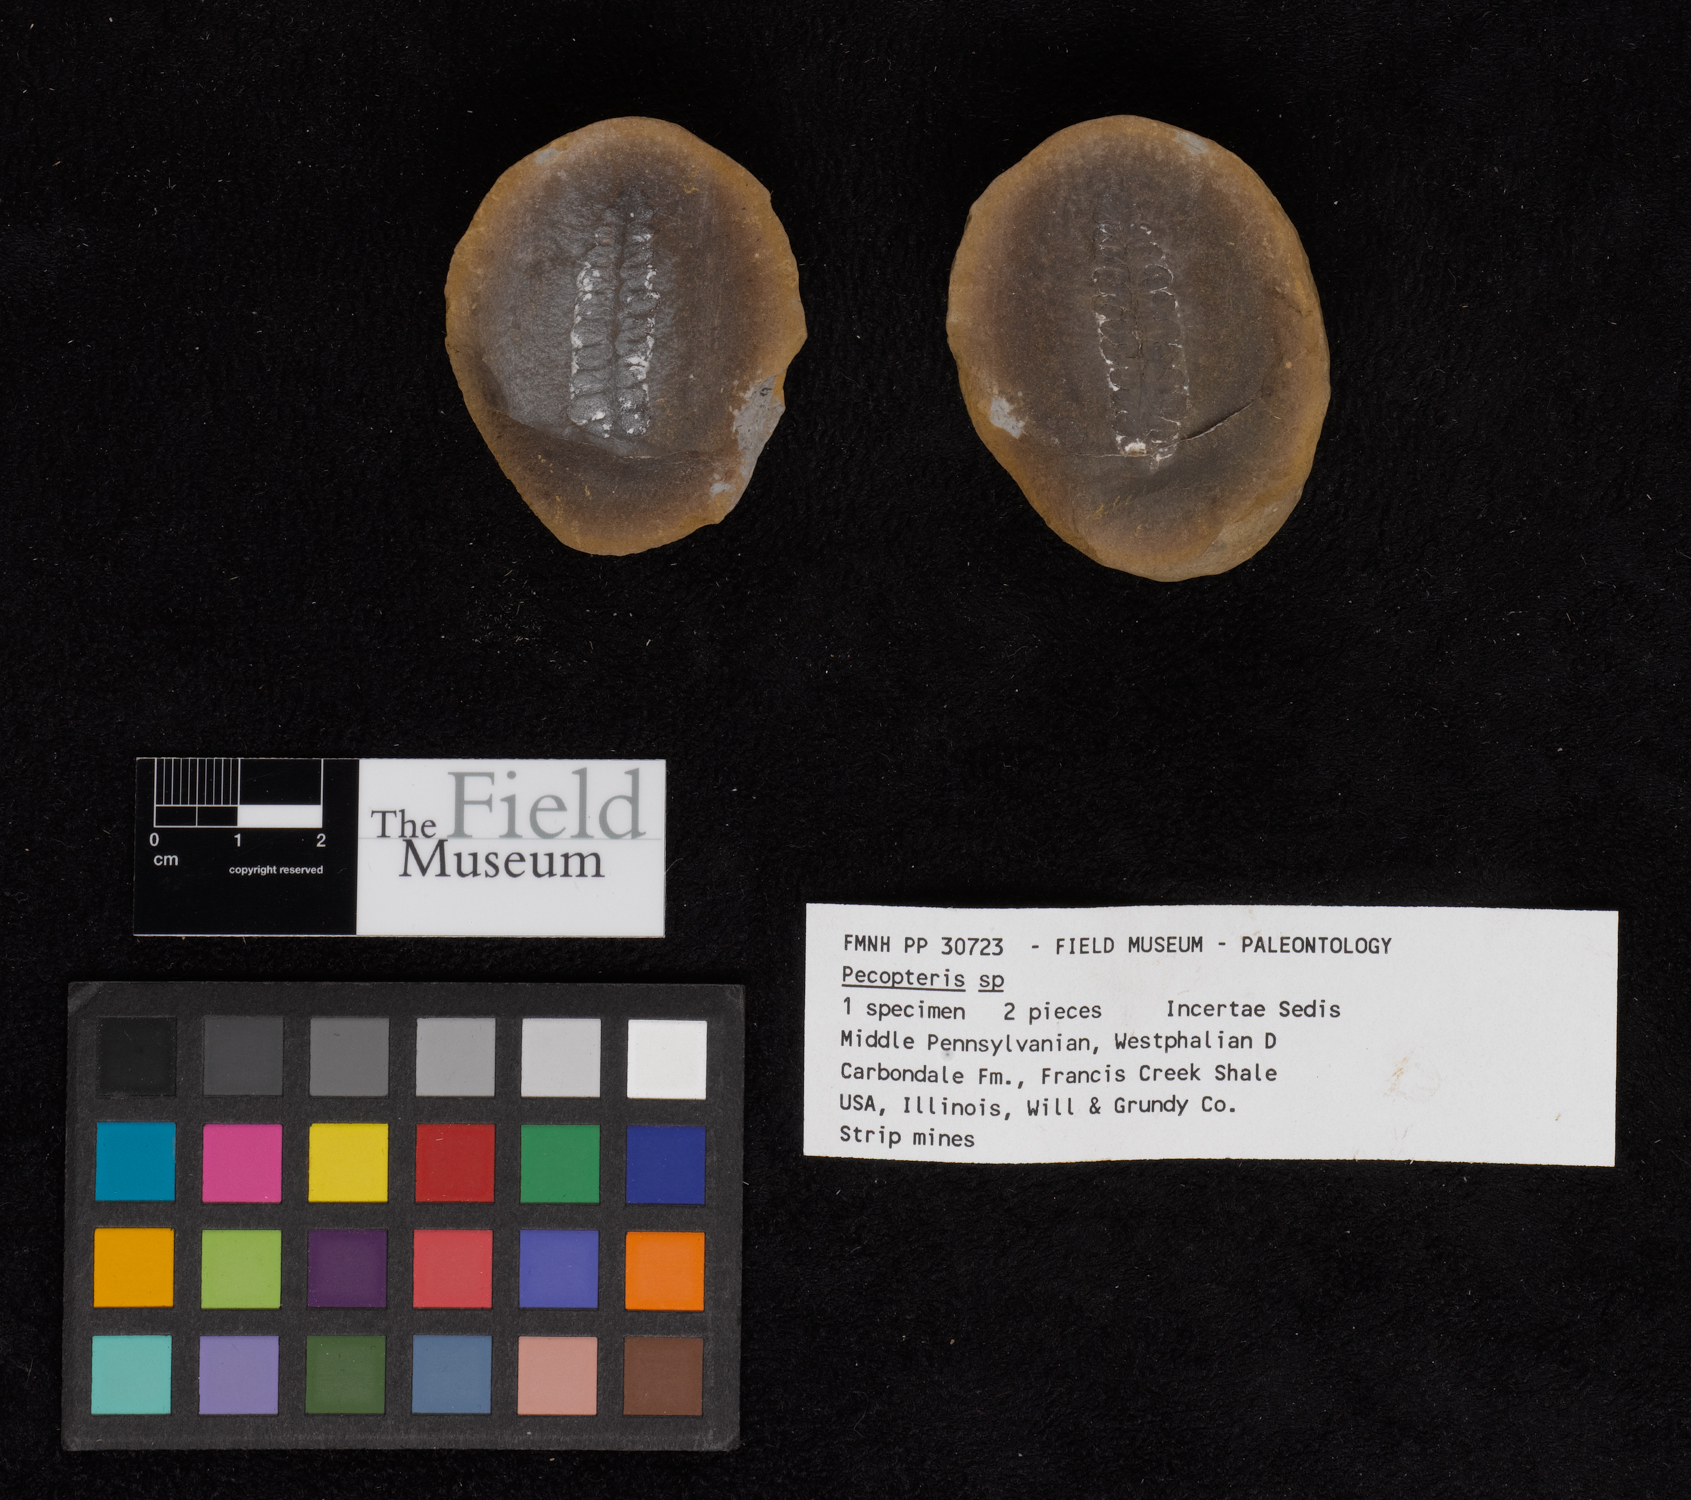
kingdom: Plantae
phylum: Tracheophyta
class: Polypodiopsida
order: Marattiales
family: Asterothecaceae
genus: Pecopteris
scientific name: Pecopteris
